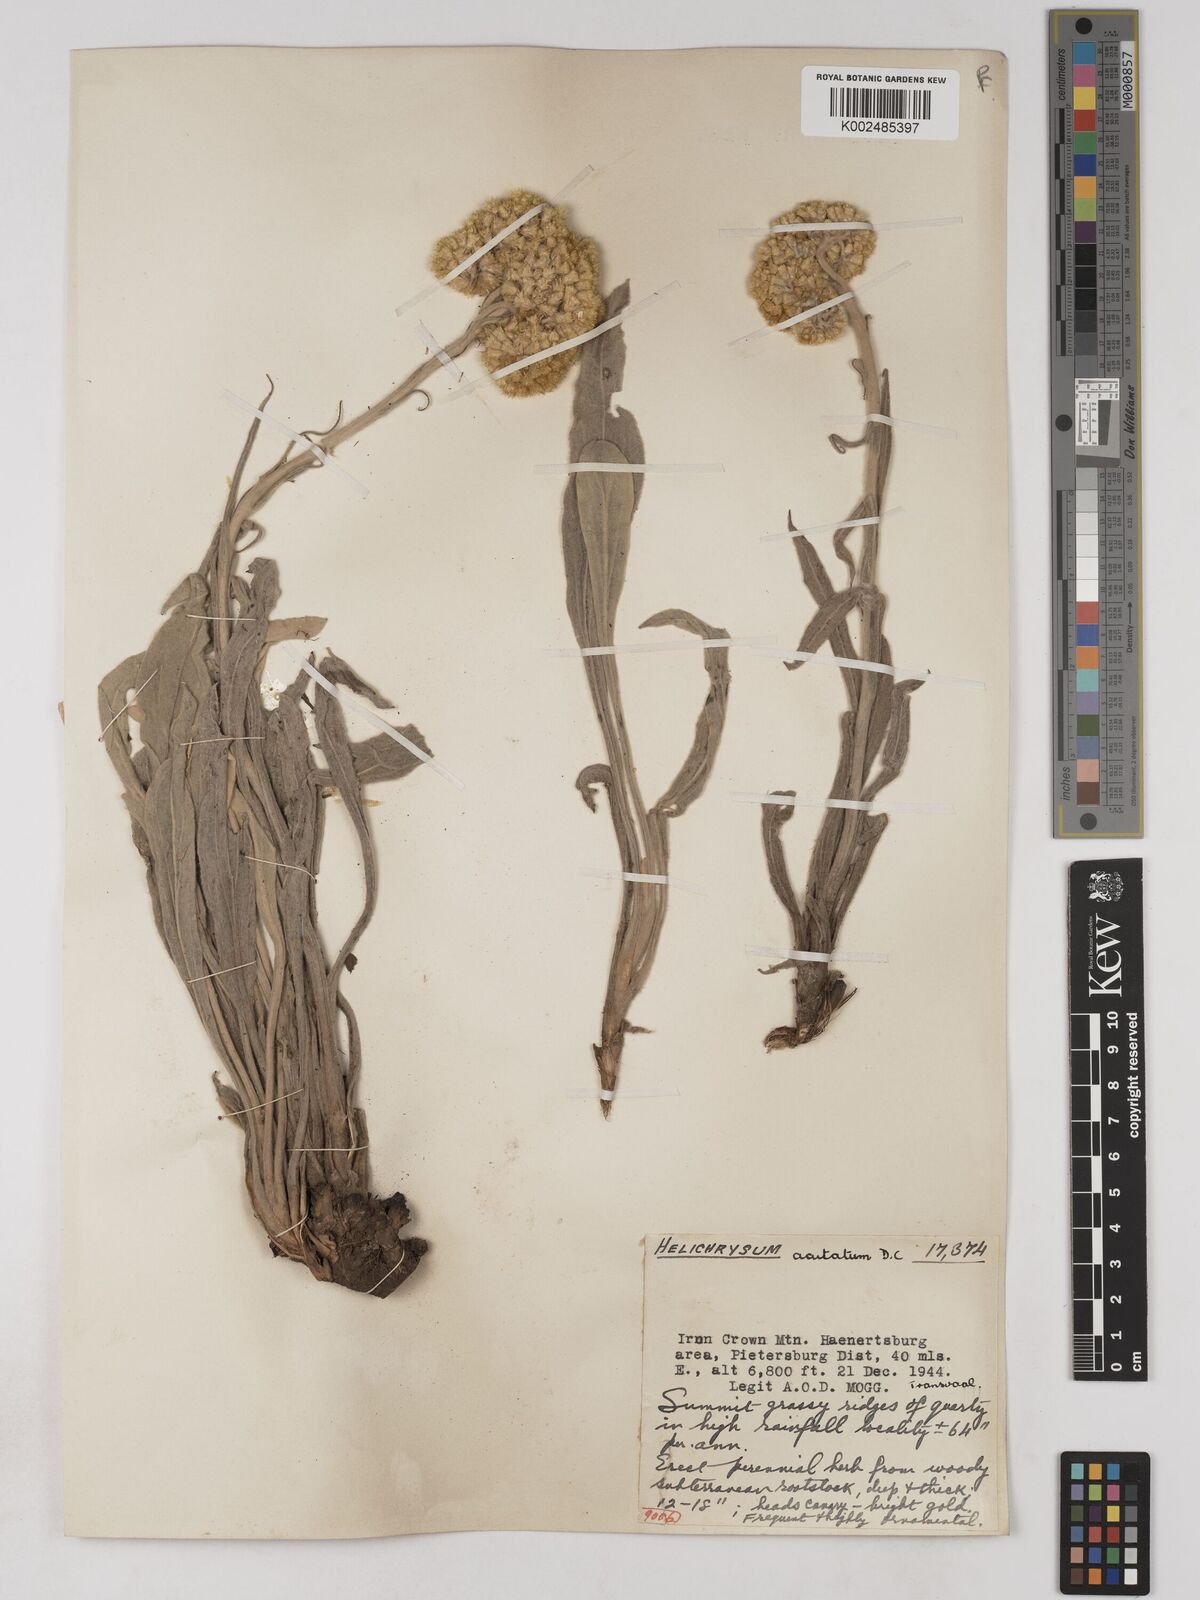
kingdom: Plantae
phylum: Tracheophyta
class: Magnoliopsida
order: Asterales
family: Asteraceae
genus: Helichrysum
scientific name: Helichrysum acutatum
